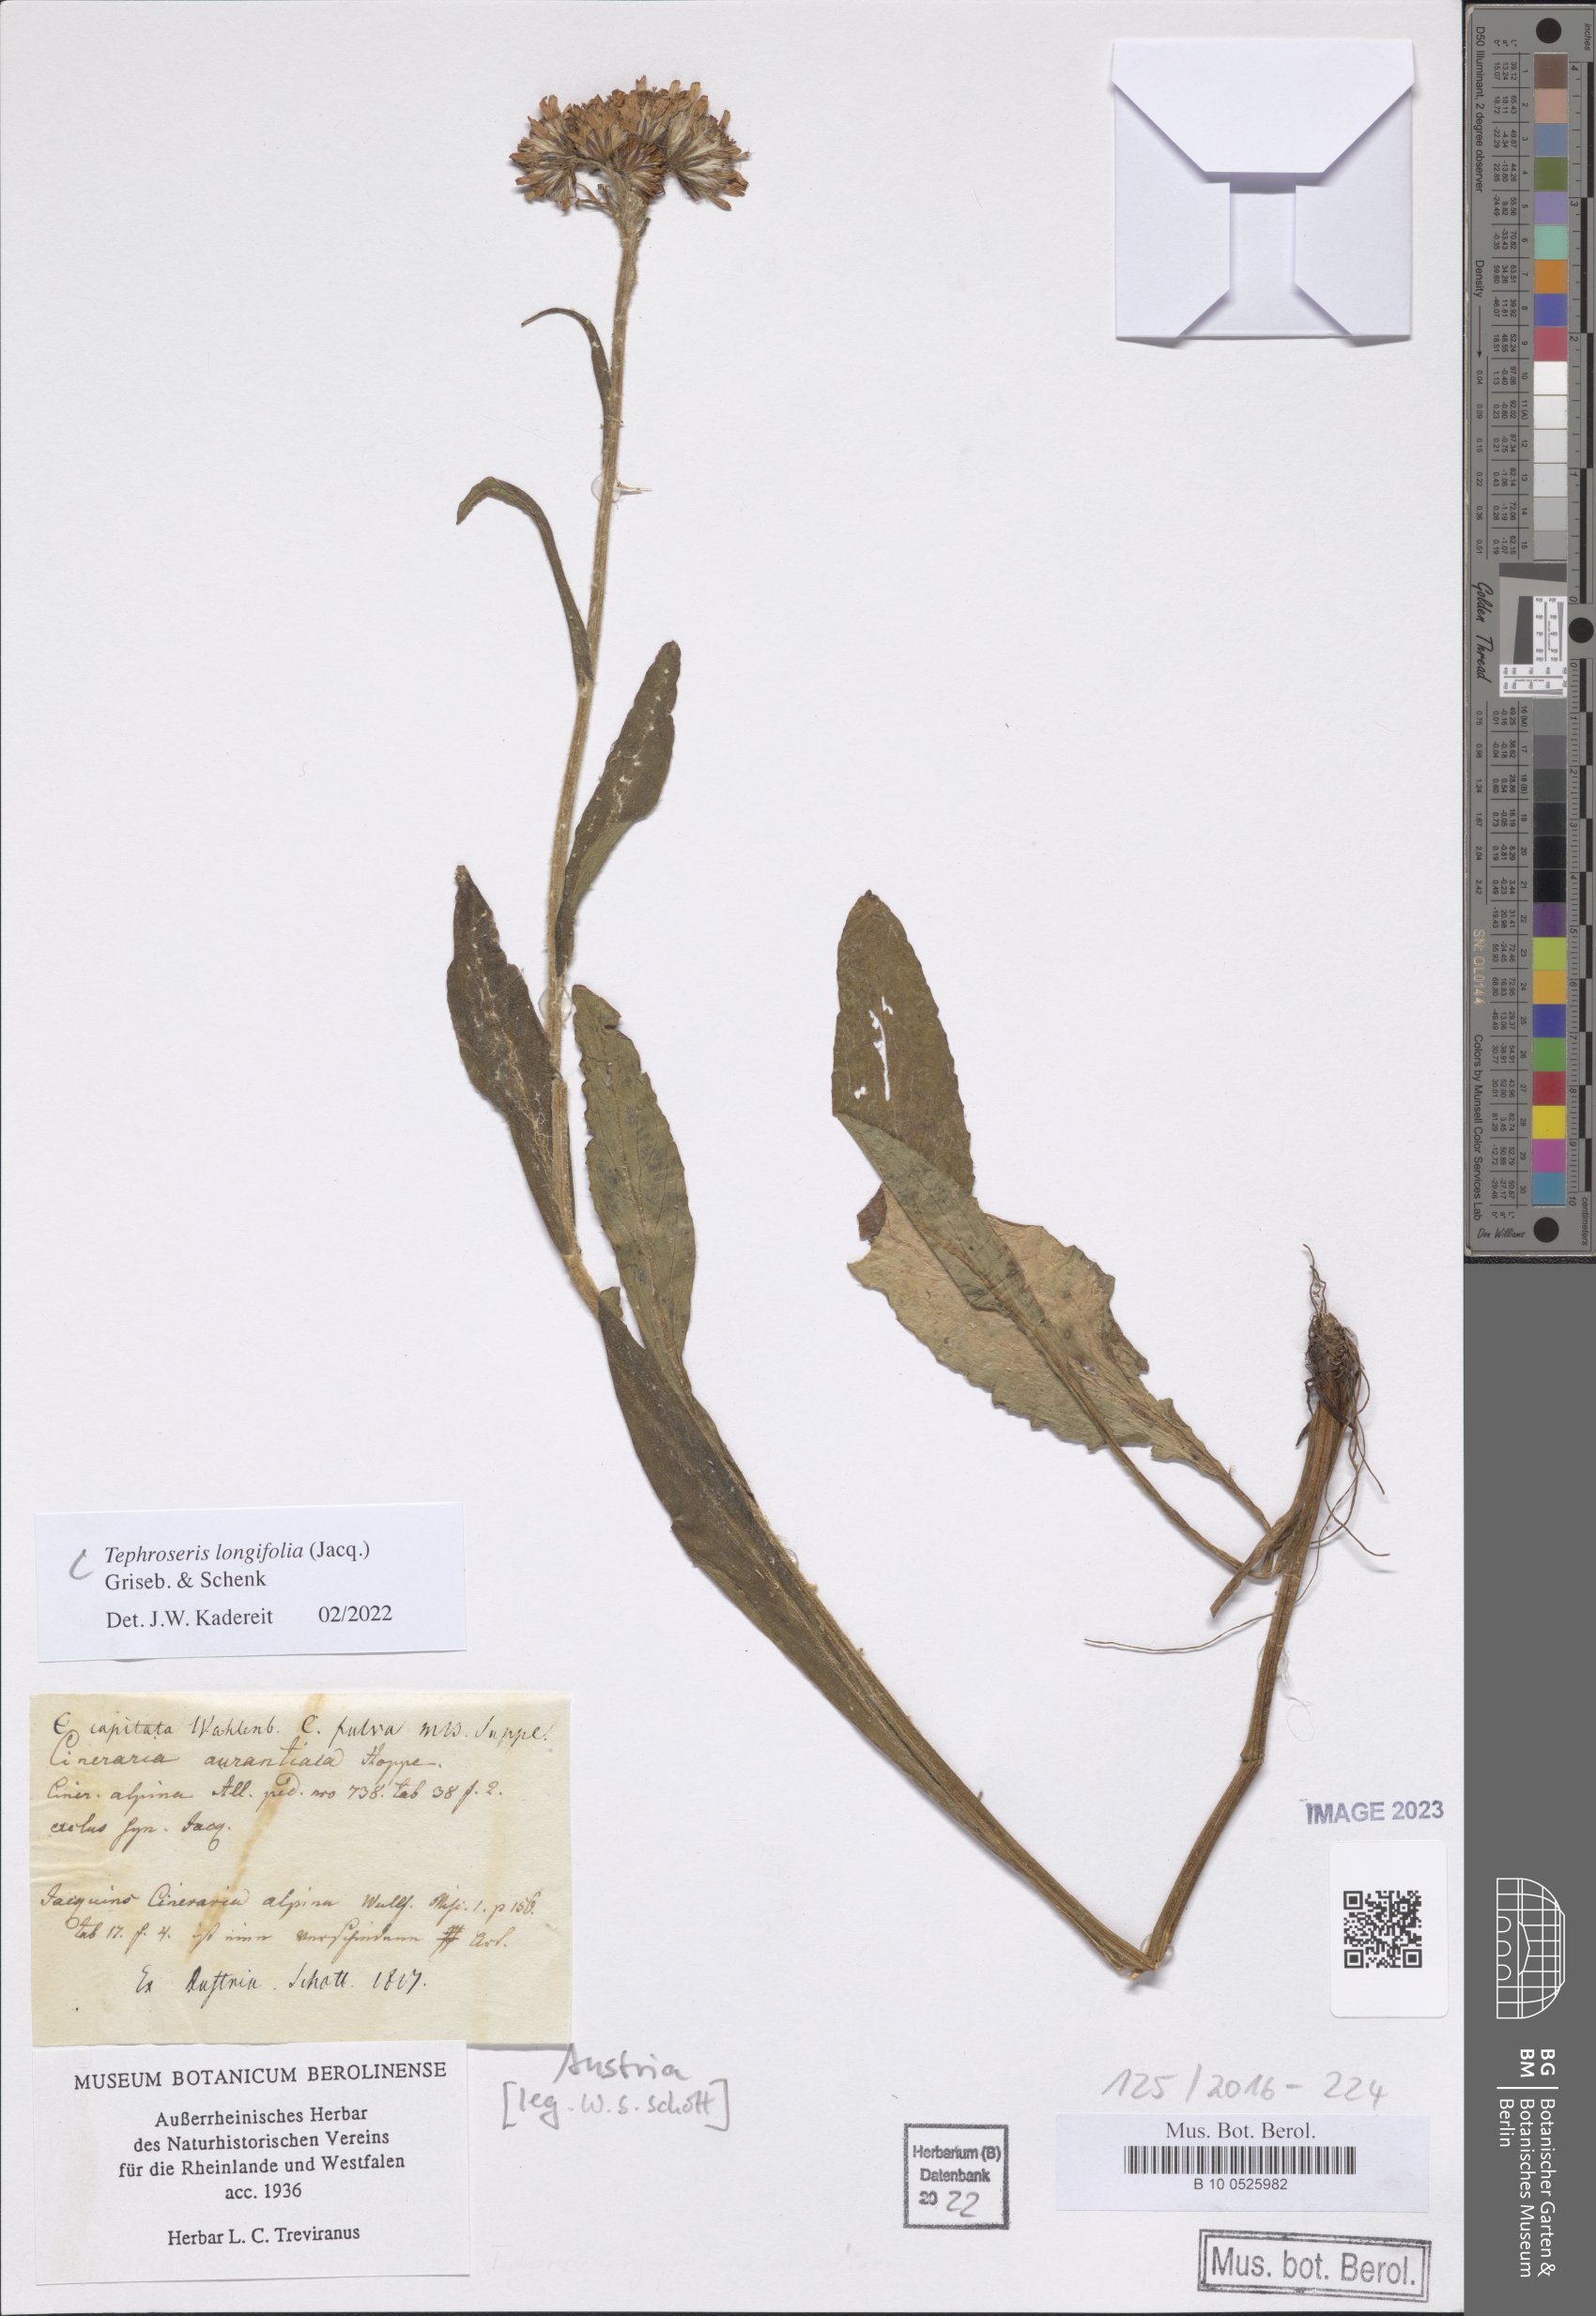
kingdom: Plantae
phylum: Tracheophyta
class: Magnoliopsida
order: Asterales
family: Asteraceae
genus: Tephroseris
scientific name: Tephroseris longifolia
